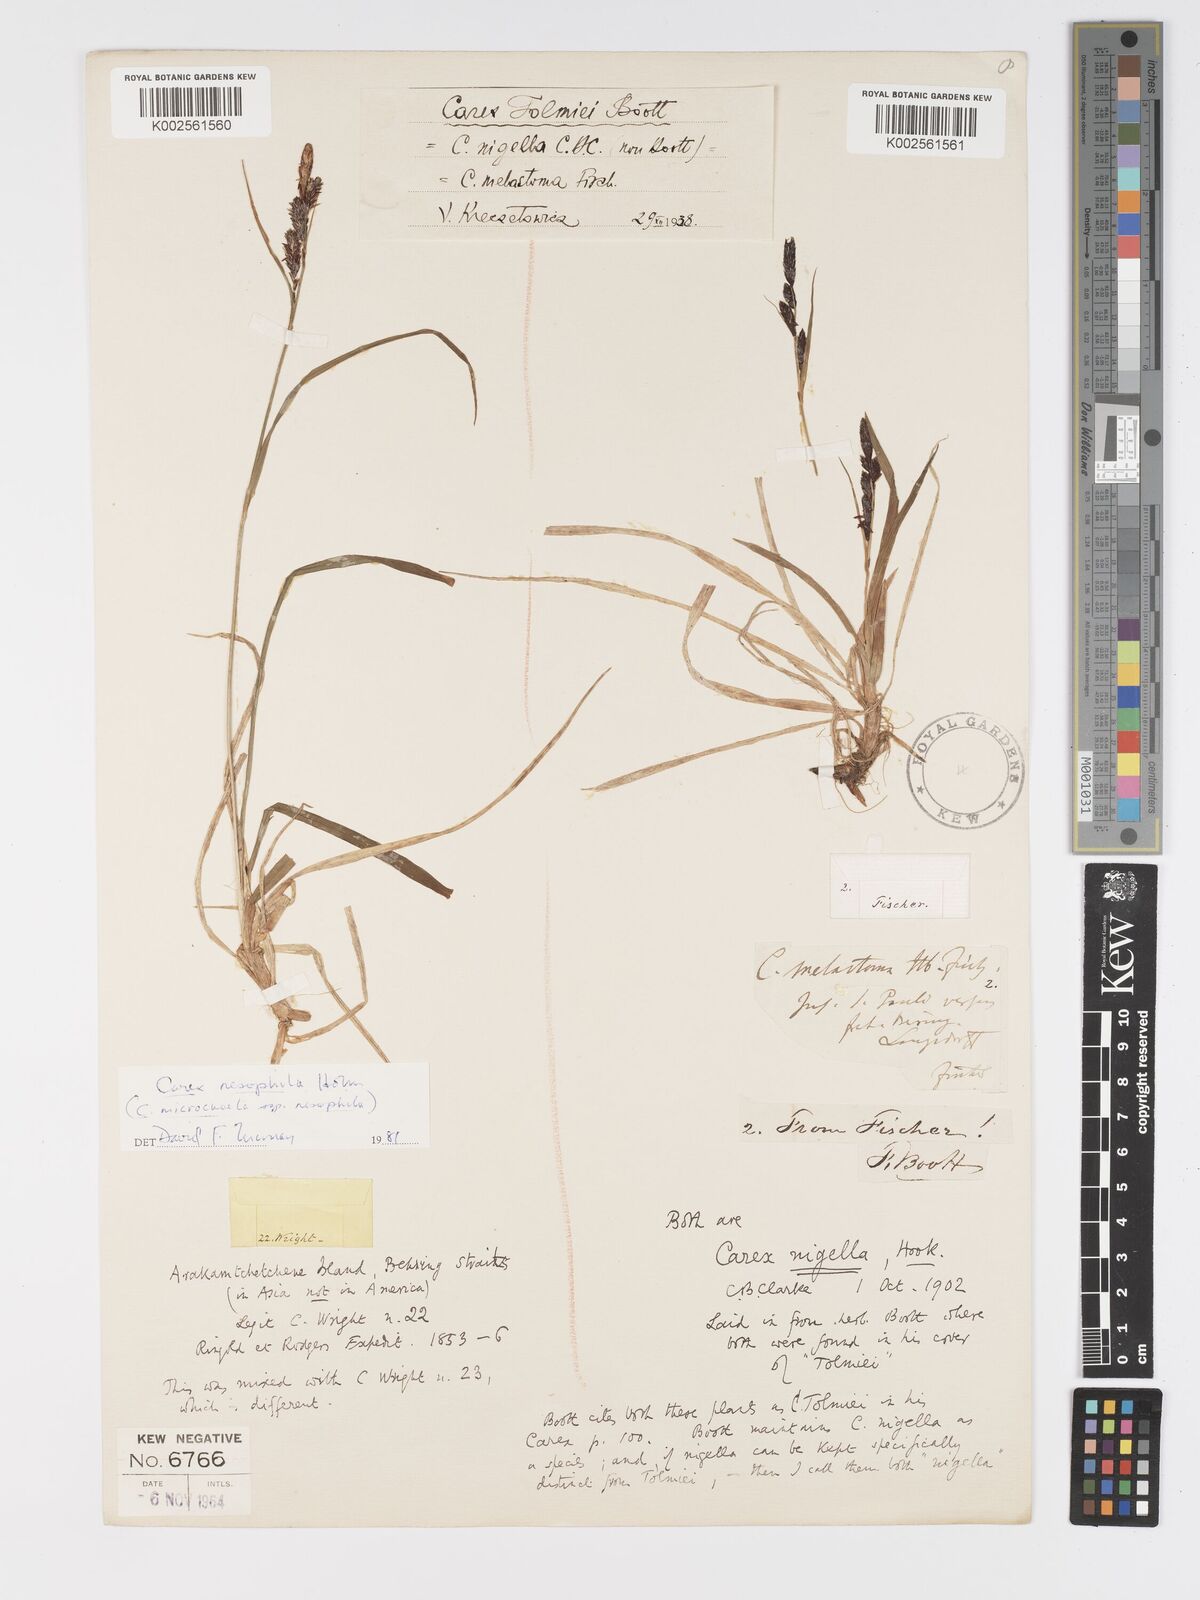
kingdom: Plantae
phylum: Tracheophyta
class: Liliopsida
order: Poales
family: Cyperaceae
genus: Carex
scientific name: Carex microchaeta
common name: Bering sea sedge
